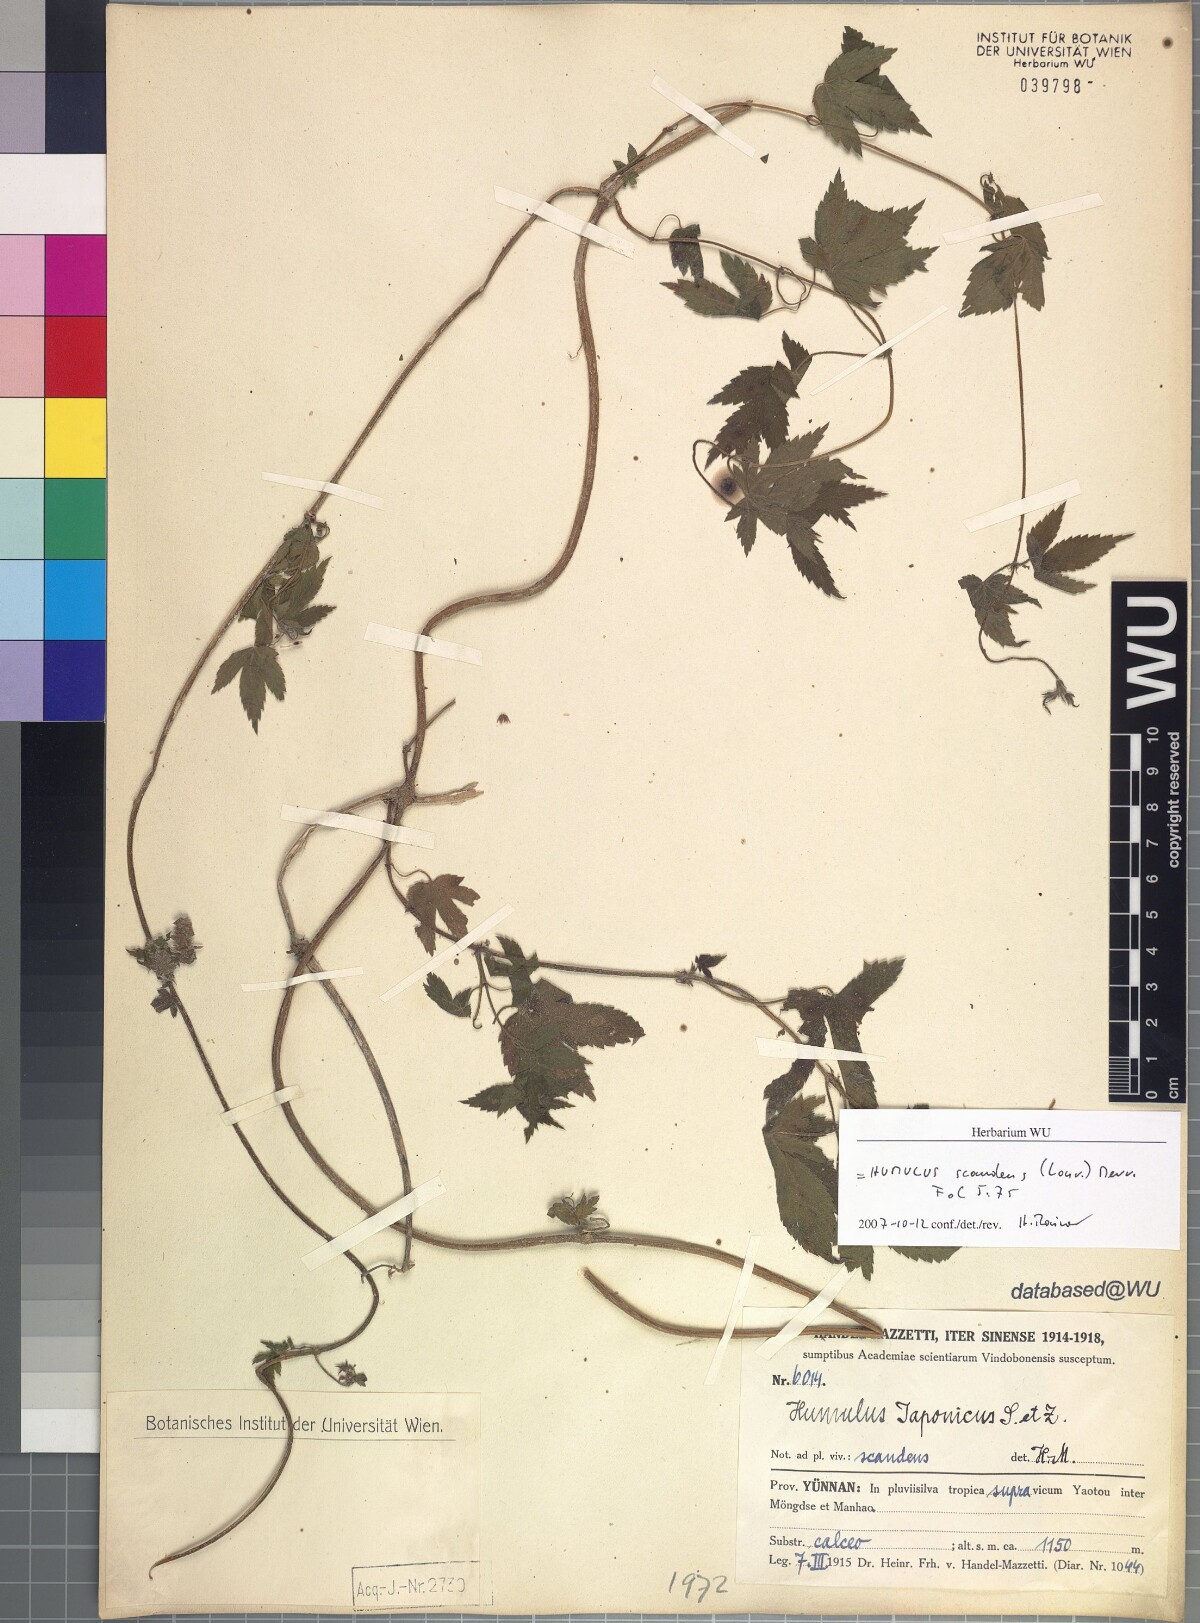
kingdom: Plantae
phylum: Tracheophyta
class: Magnoliopsida
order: Rosales
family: Cannabaceae
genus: Humulus
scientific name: Humulus scandens
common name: Japanese hop
